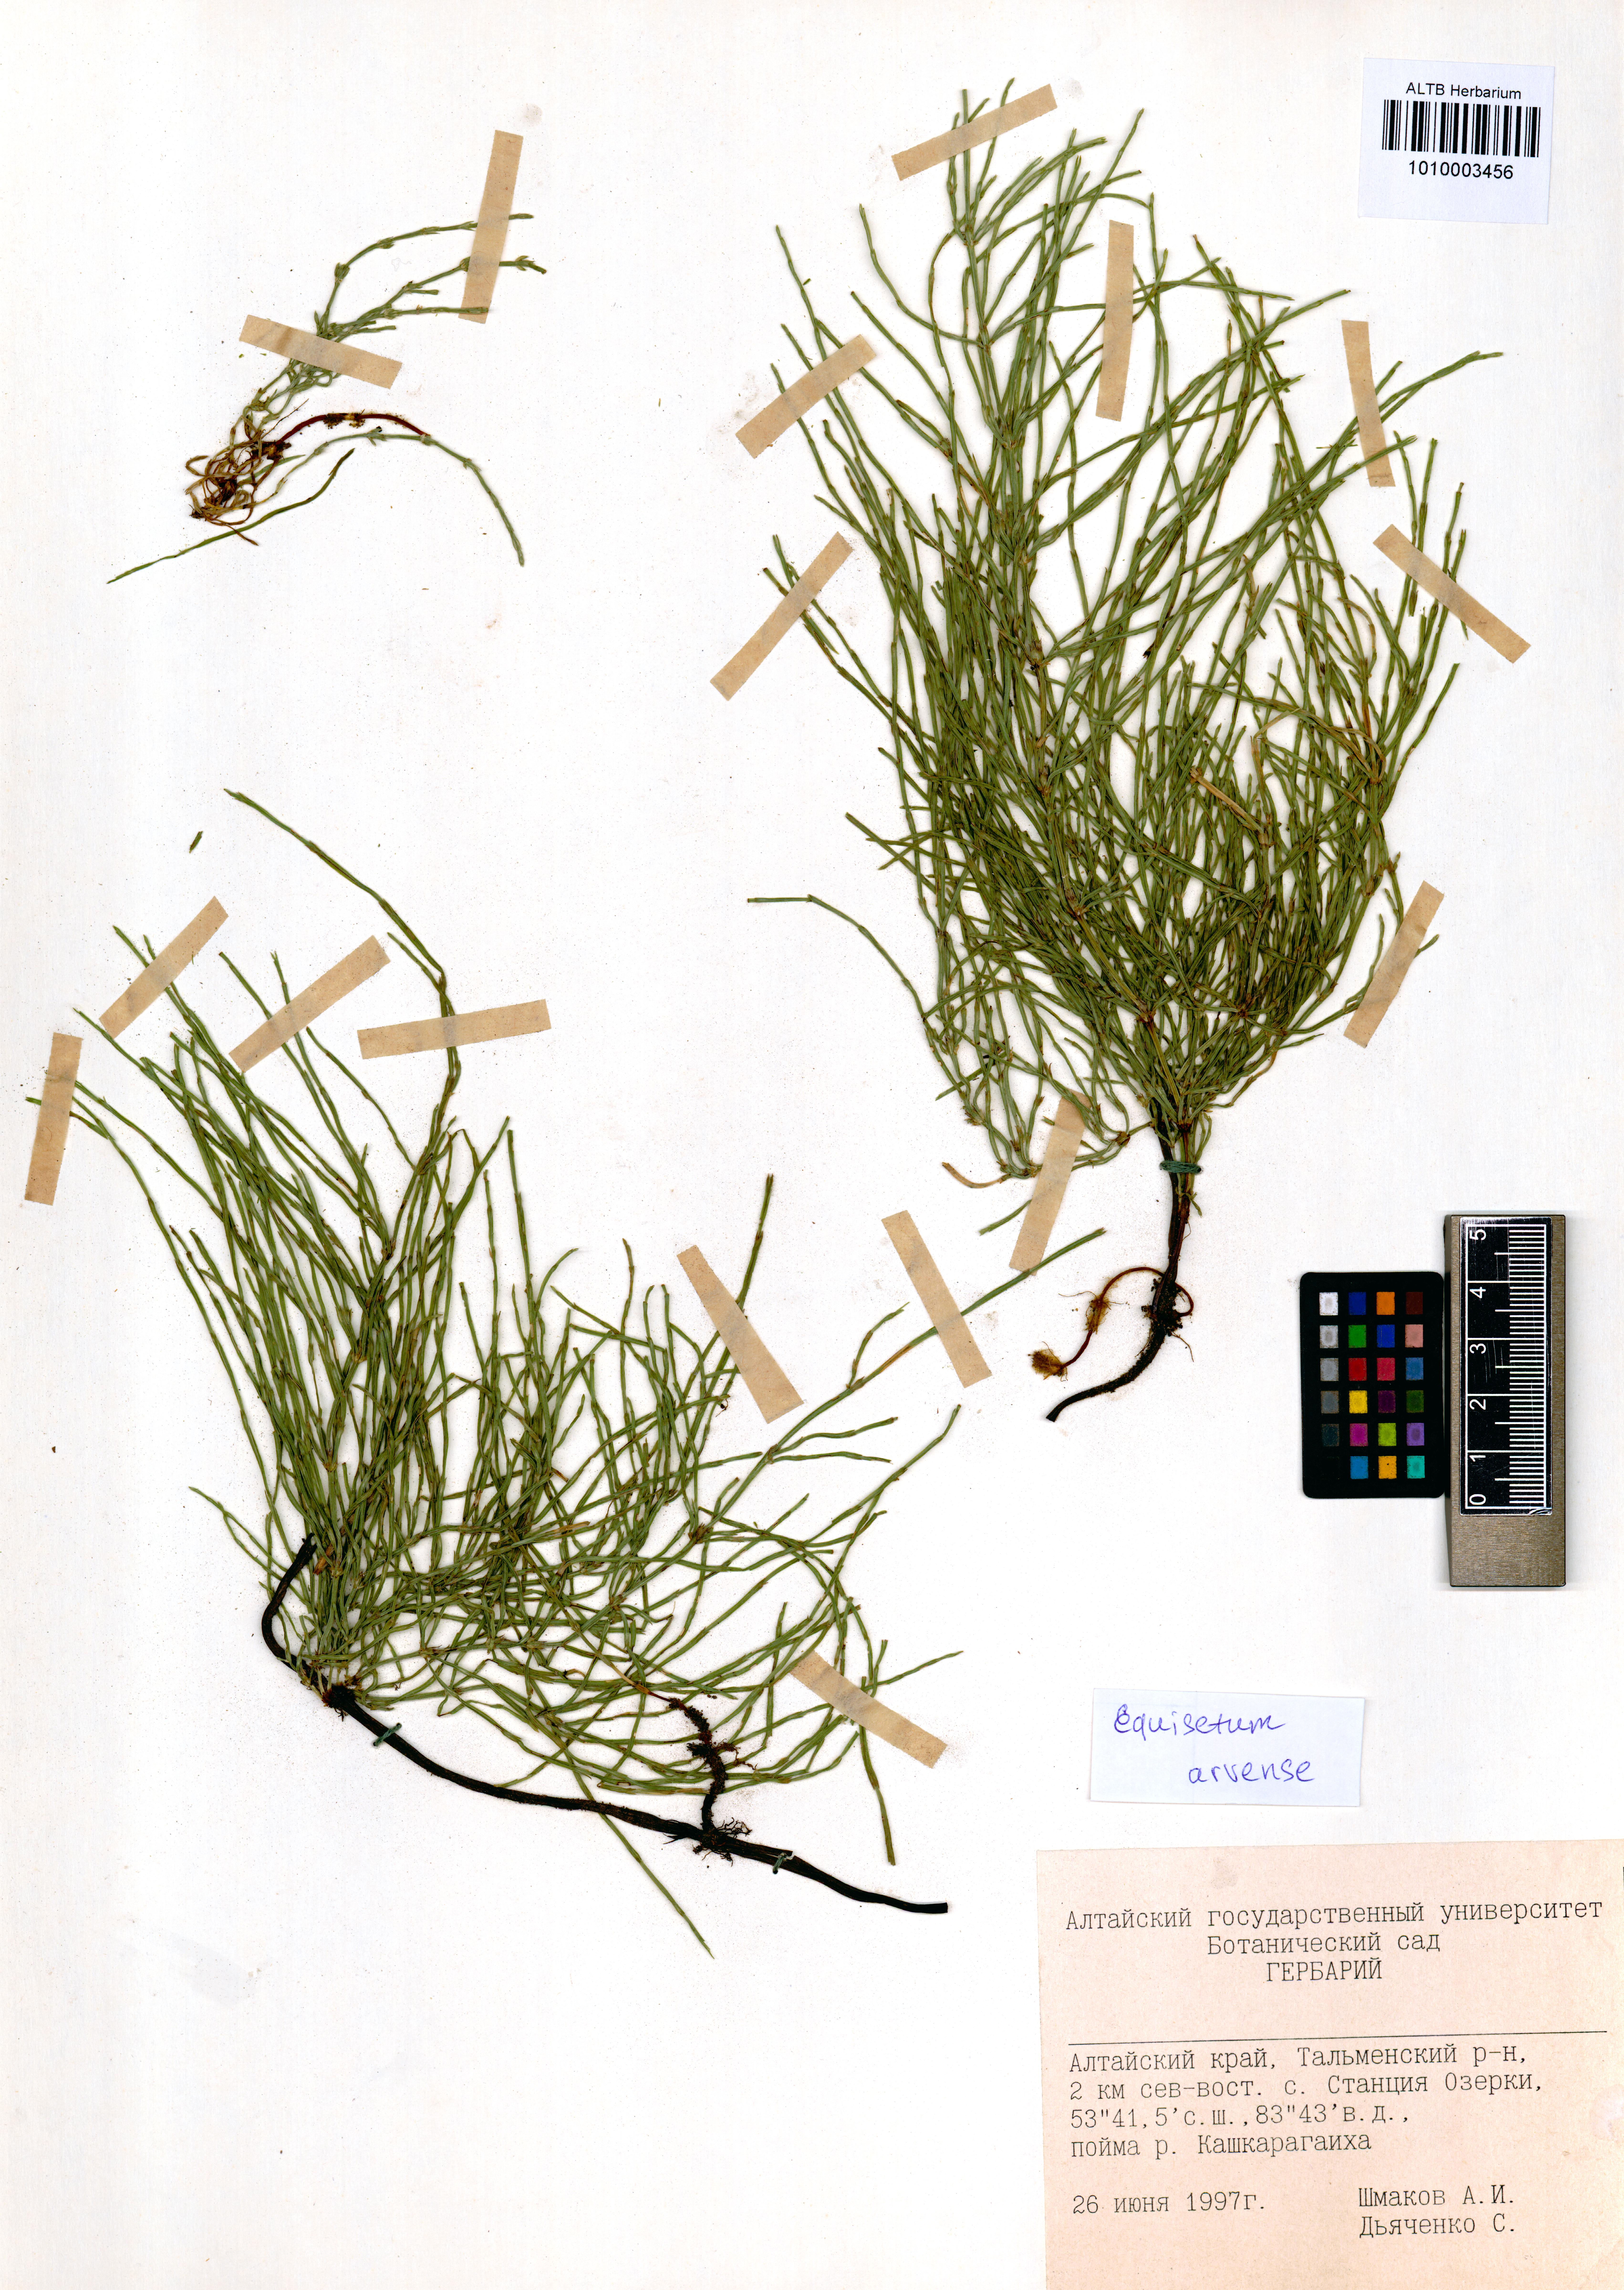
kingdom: Plantae
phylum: Tracheophyta
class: Polypodiopsida
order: Equisetales
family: Equisetaceae
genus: Equisetum
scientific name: Equisetum arvense
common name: Field horsetail
